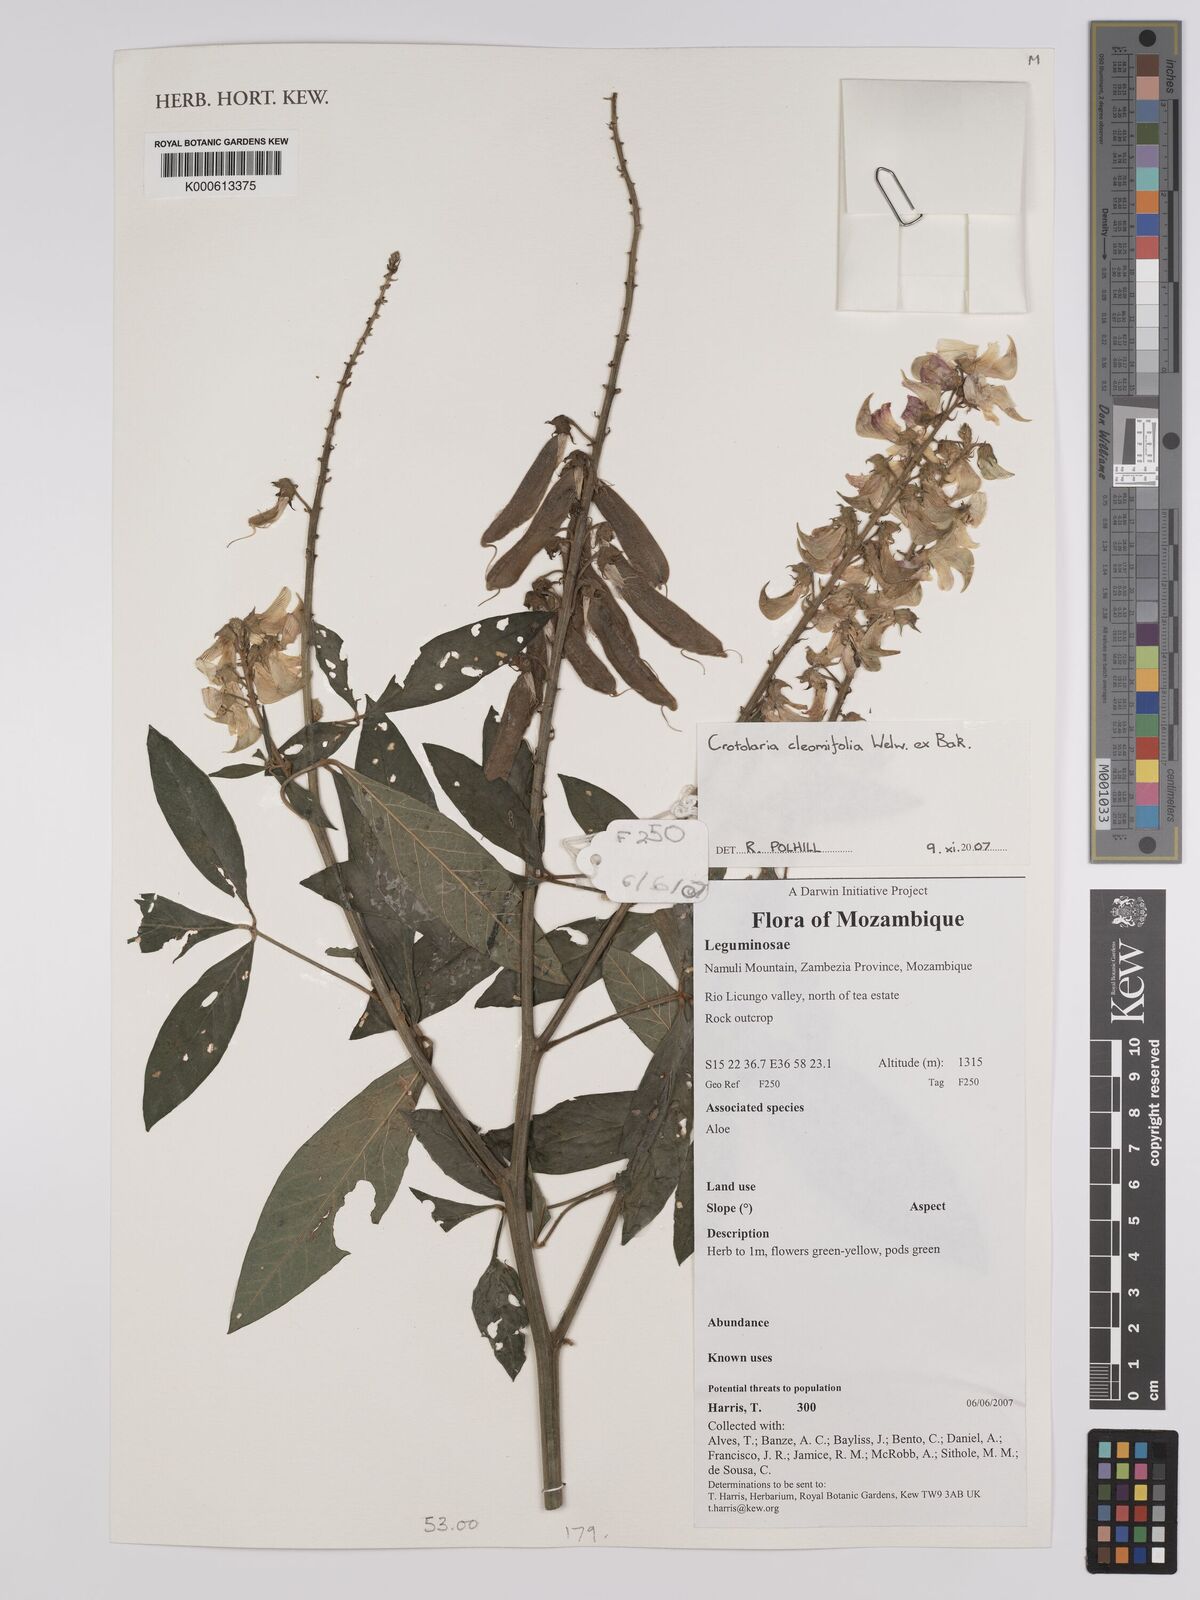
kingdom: Plantae
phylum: Tracheophyta
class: Magnoliopsida
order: Fabales
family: Fabaceae
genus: Crotalaria
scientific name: Crotalaria cleomifolia
